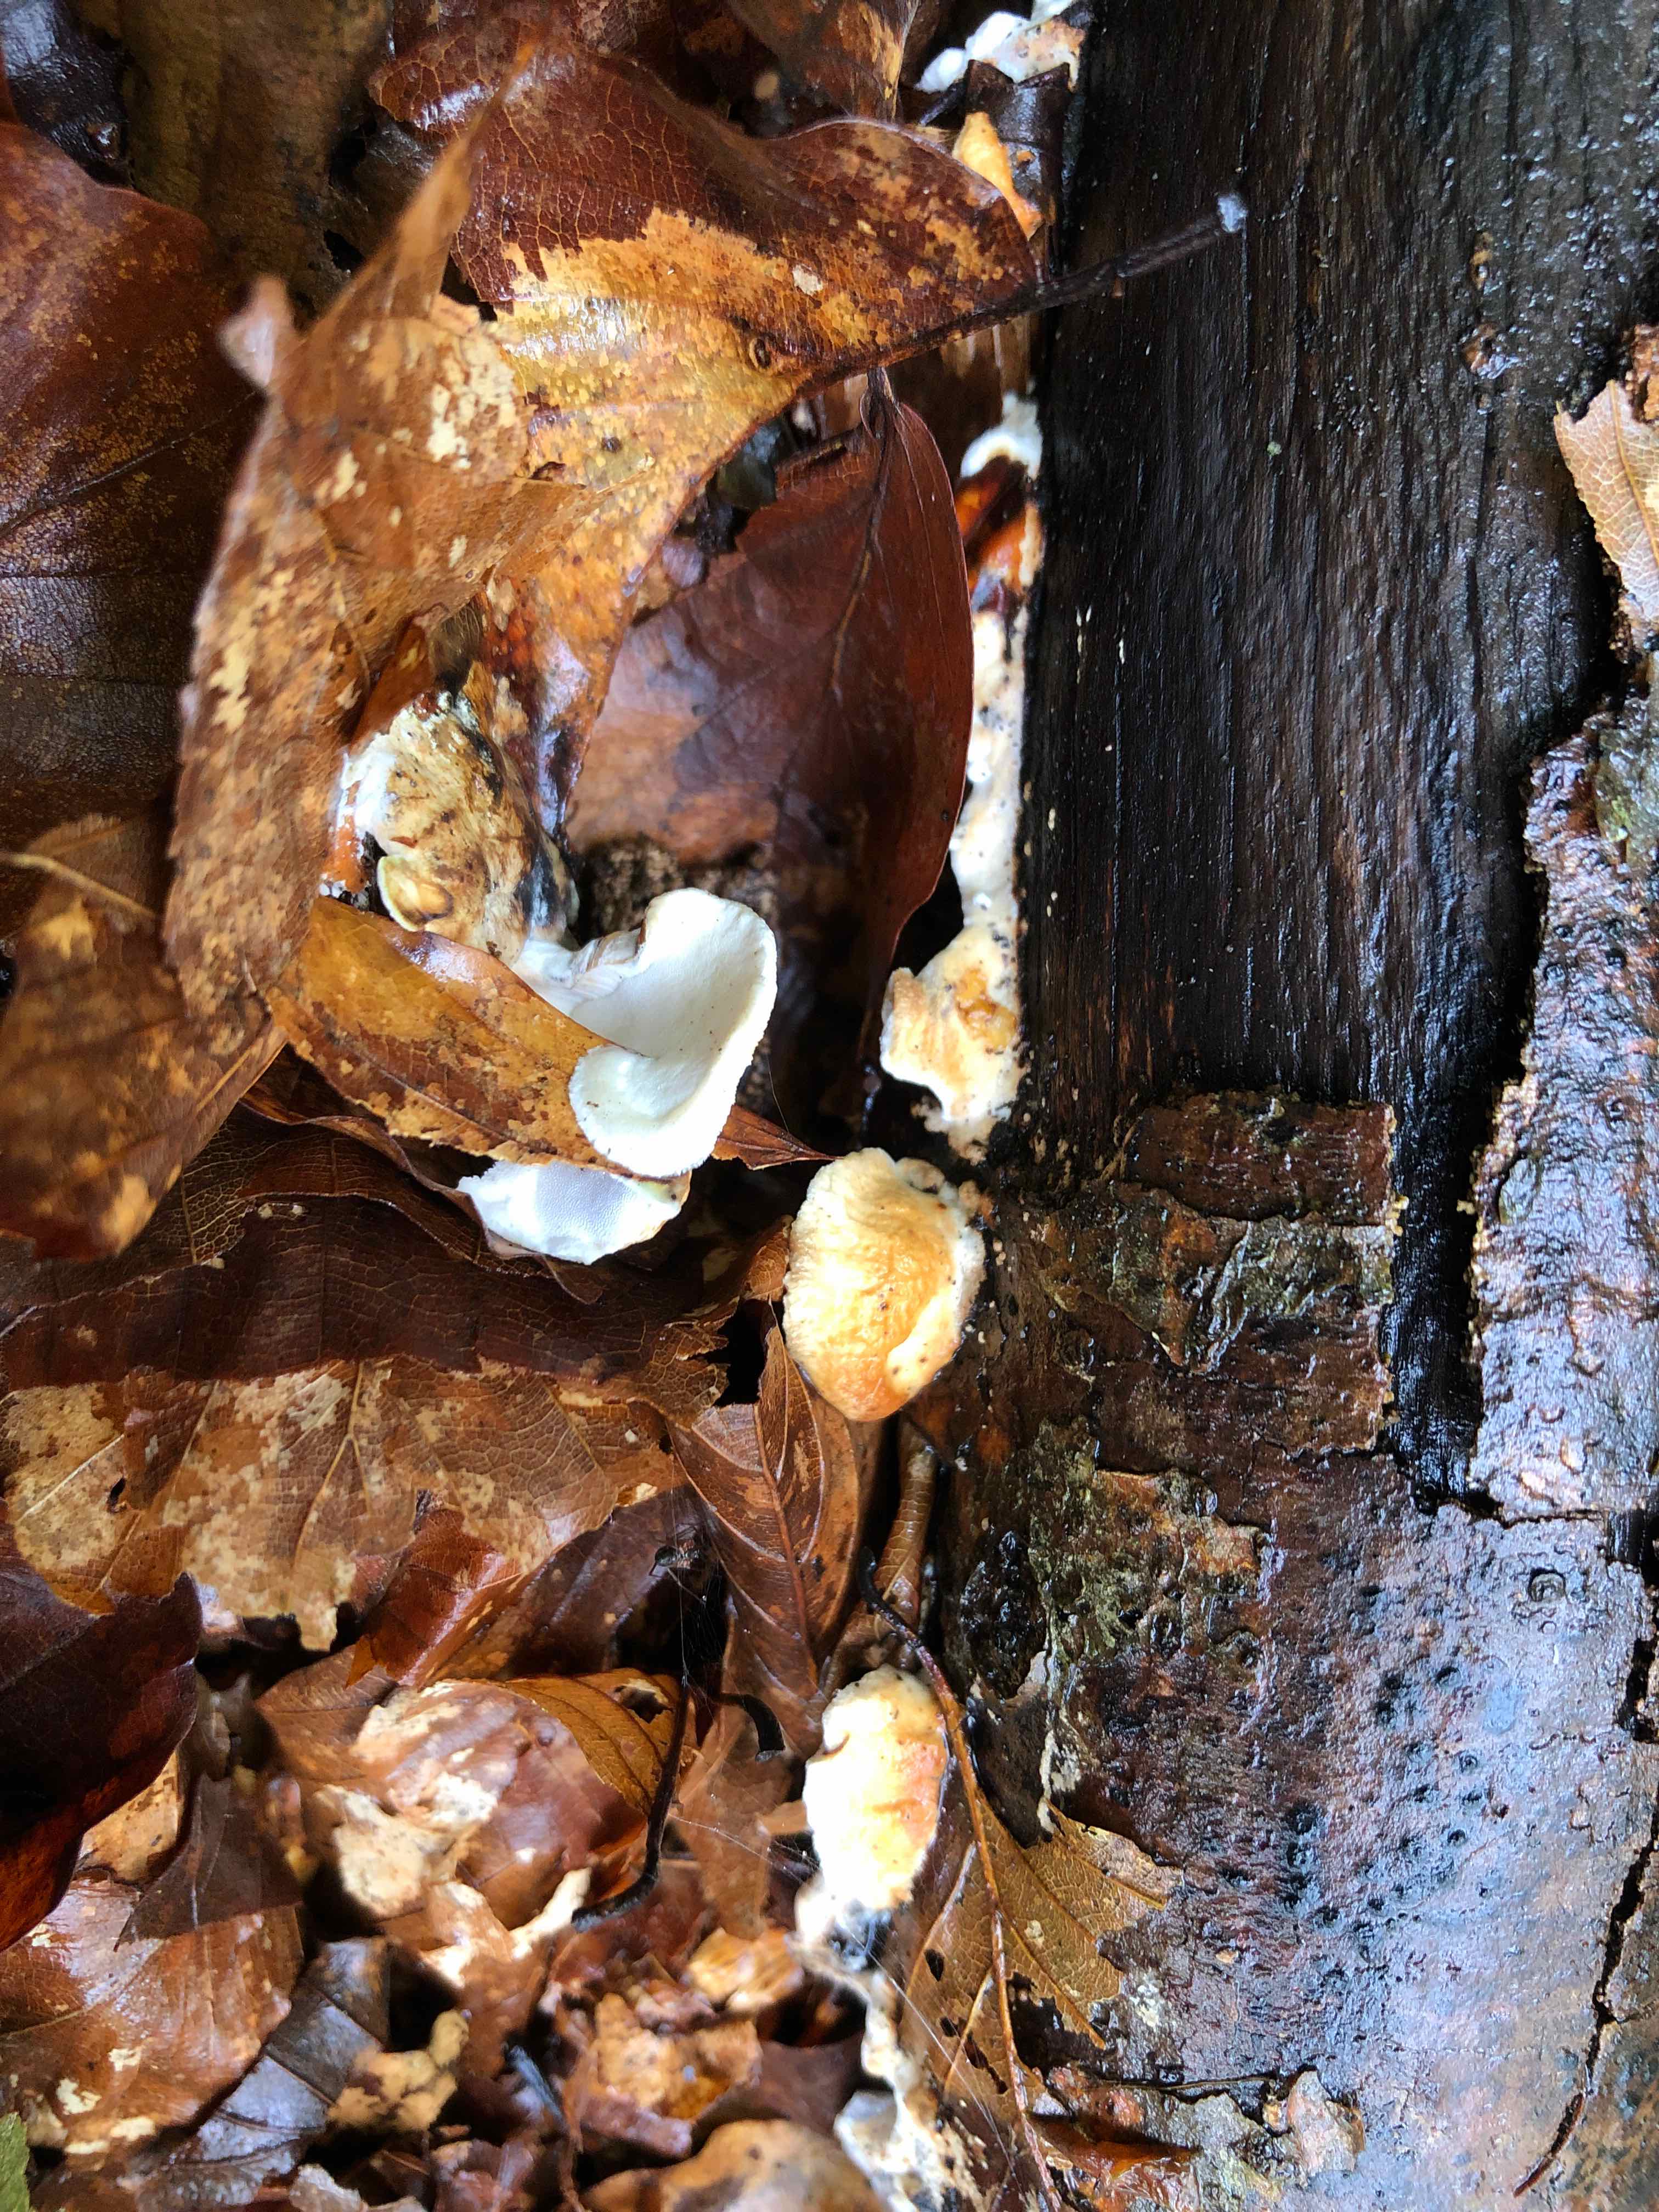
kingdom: Fungi
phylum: Basidiomycota
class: Agaricomycetes
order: Polyporales
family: Steccherinaceae
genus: Loweomyces
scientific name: Loweomyces wynneae
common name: krybende blødporesvamp
